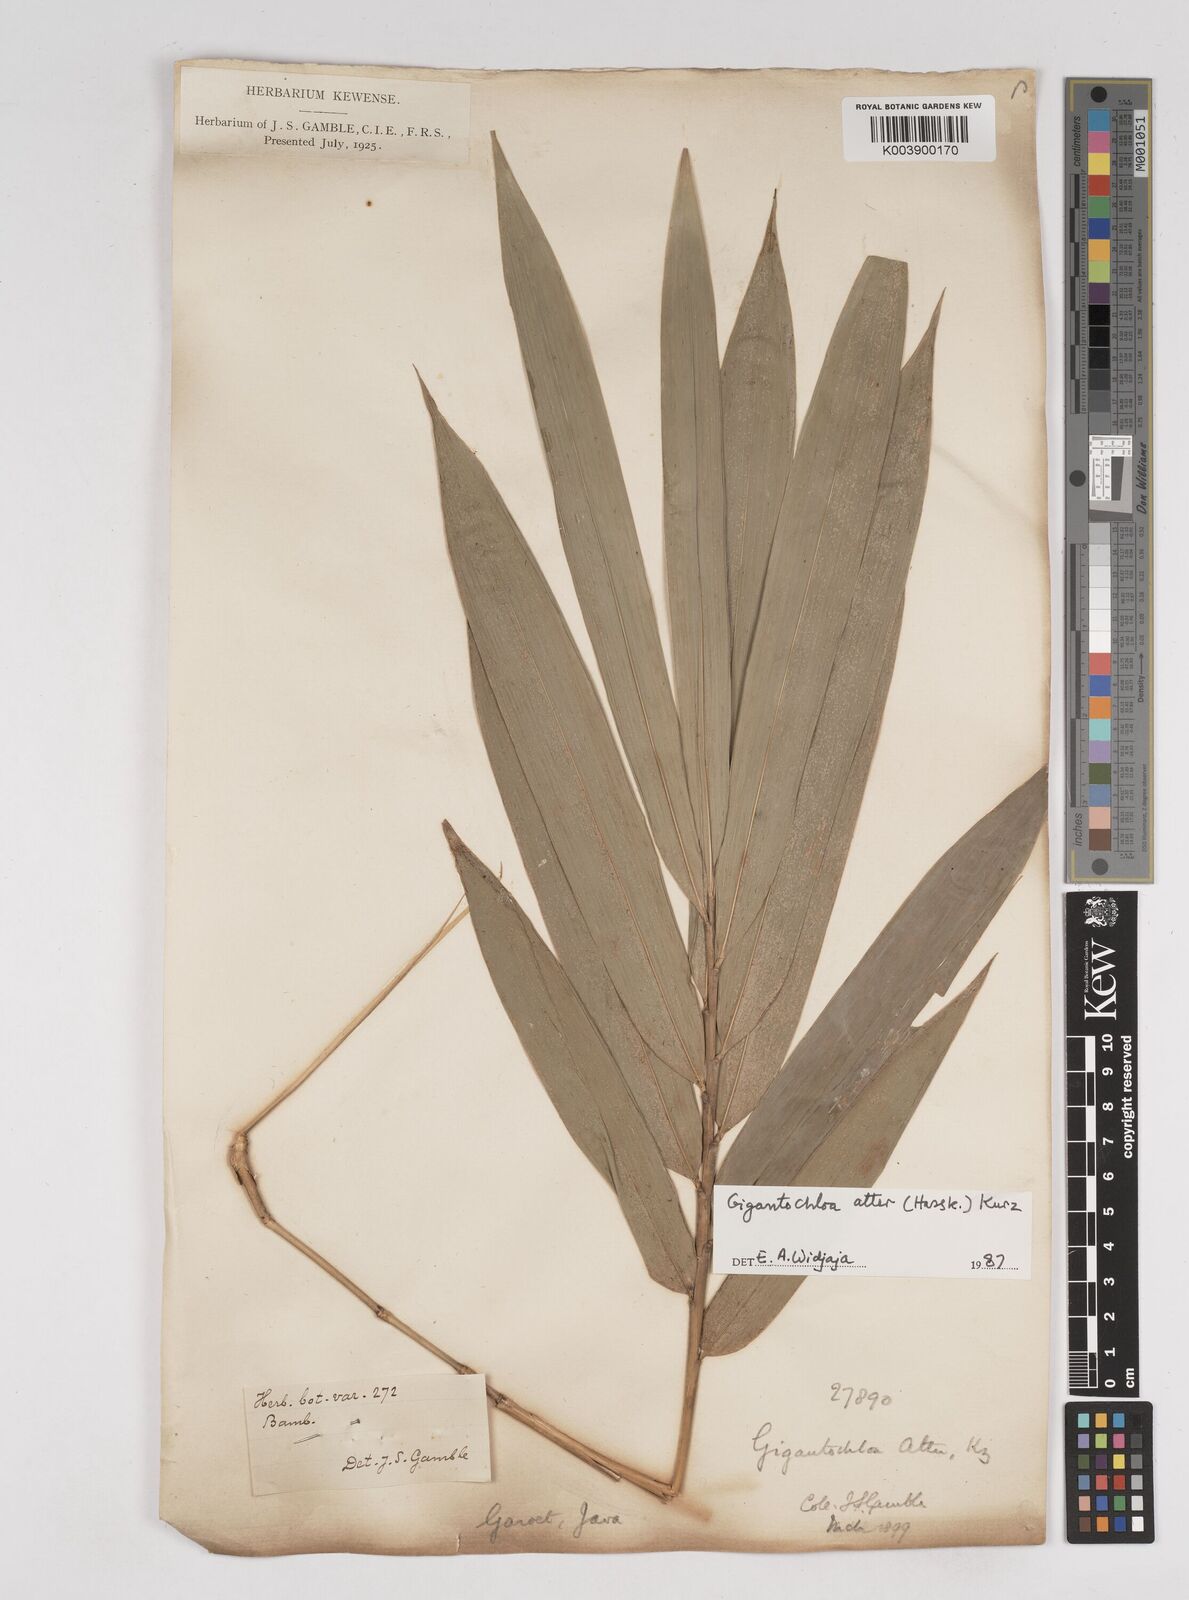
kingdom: Plantae
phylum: Tracheophyta
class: Liliopsida
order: Poales
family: Poaceae
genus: Gigantochloa
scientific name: Gigantochloa atter
